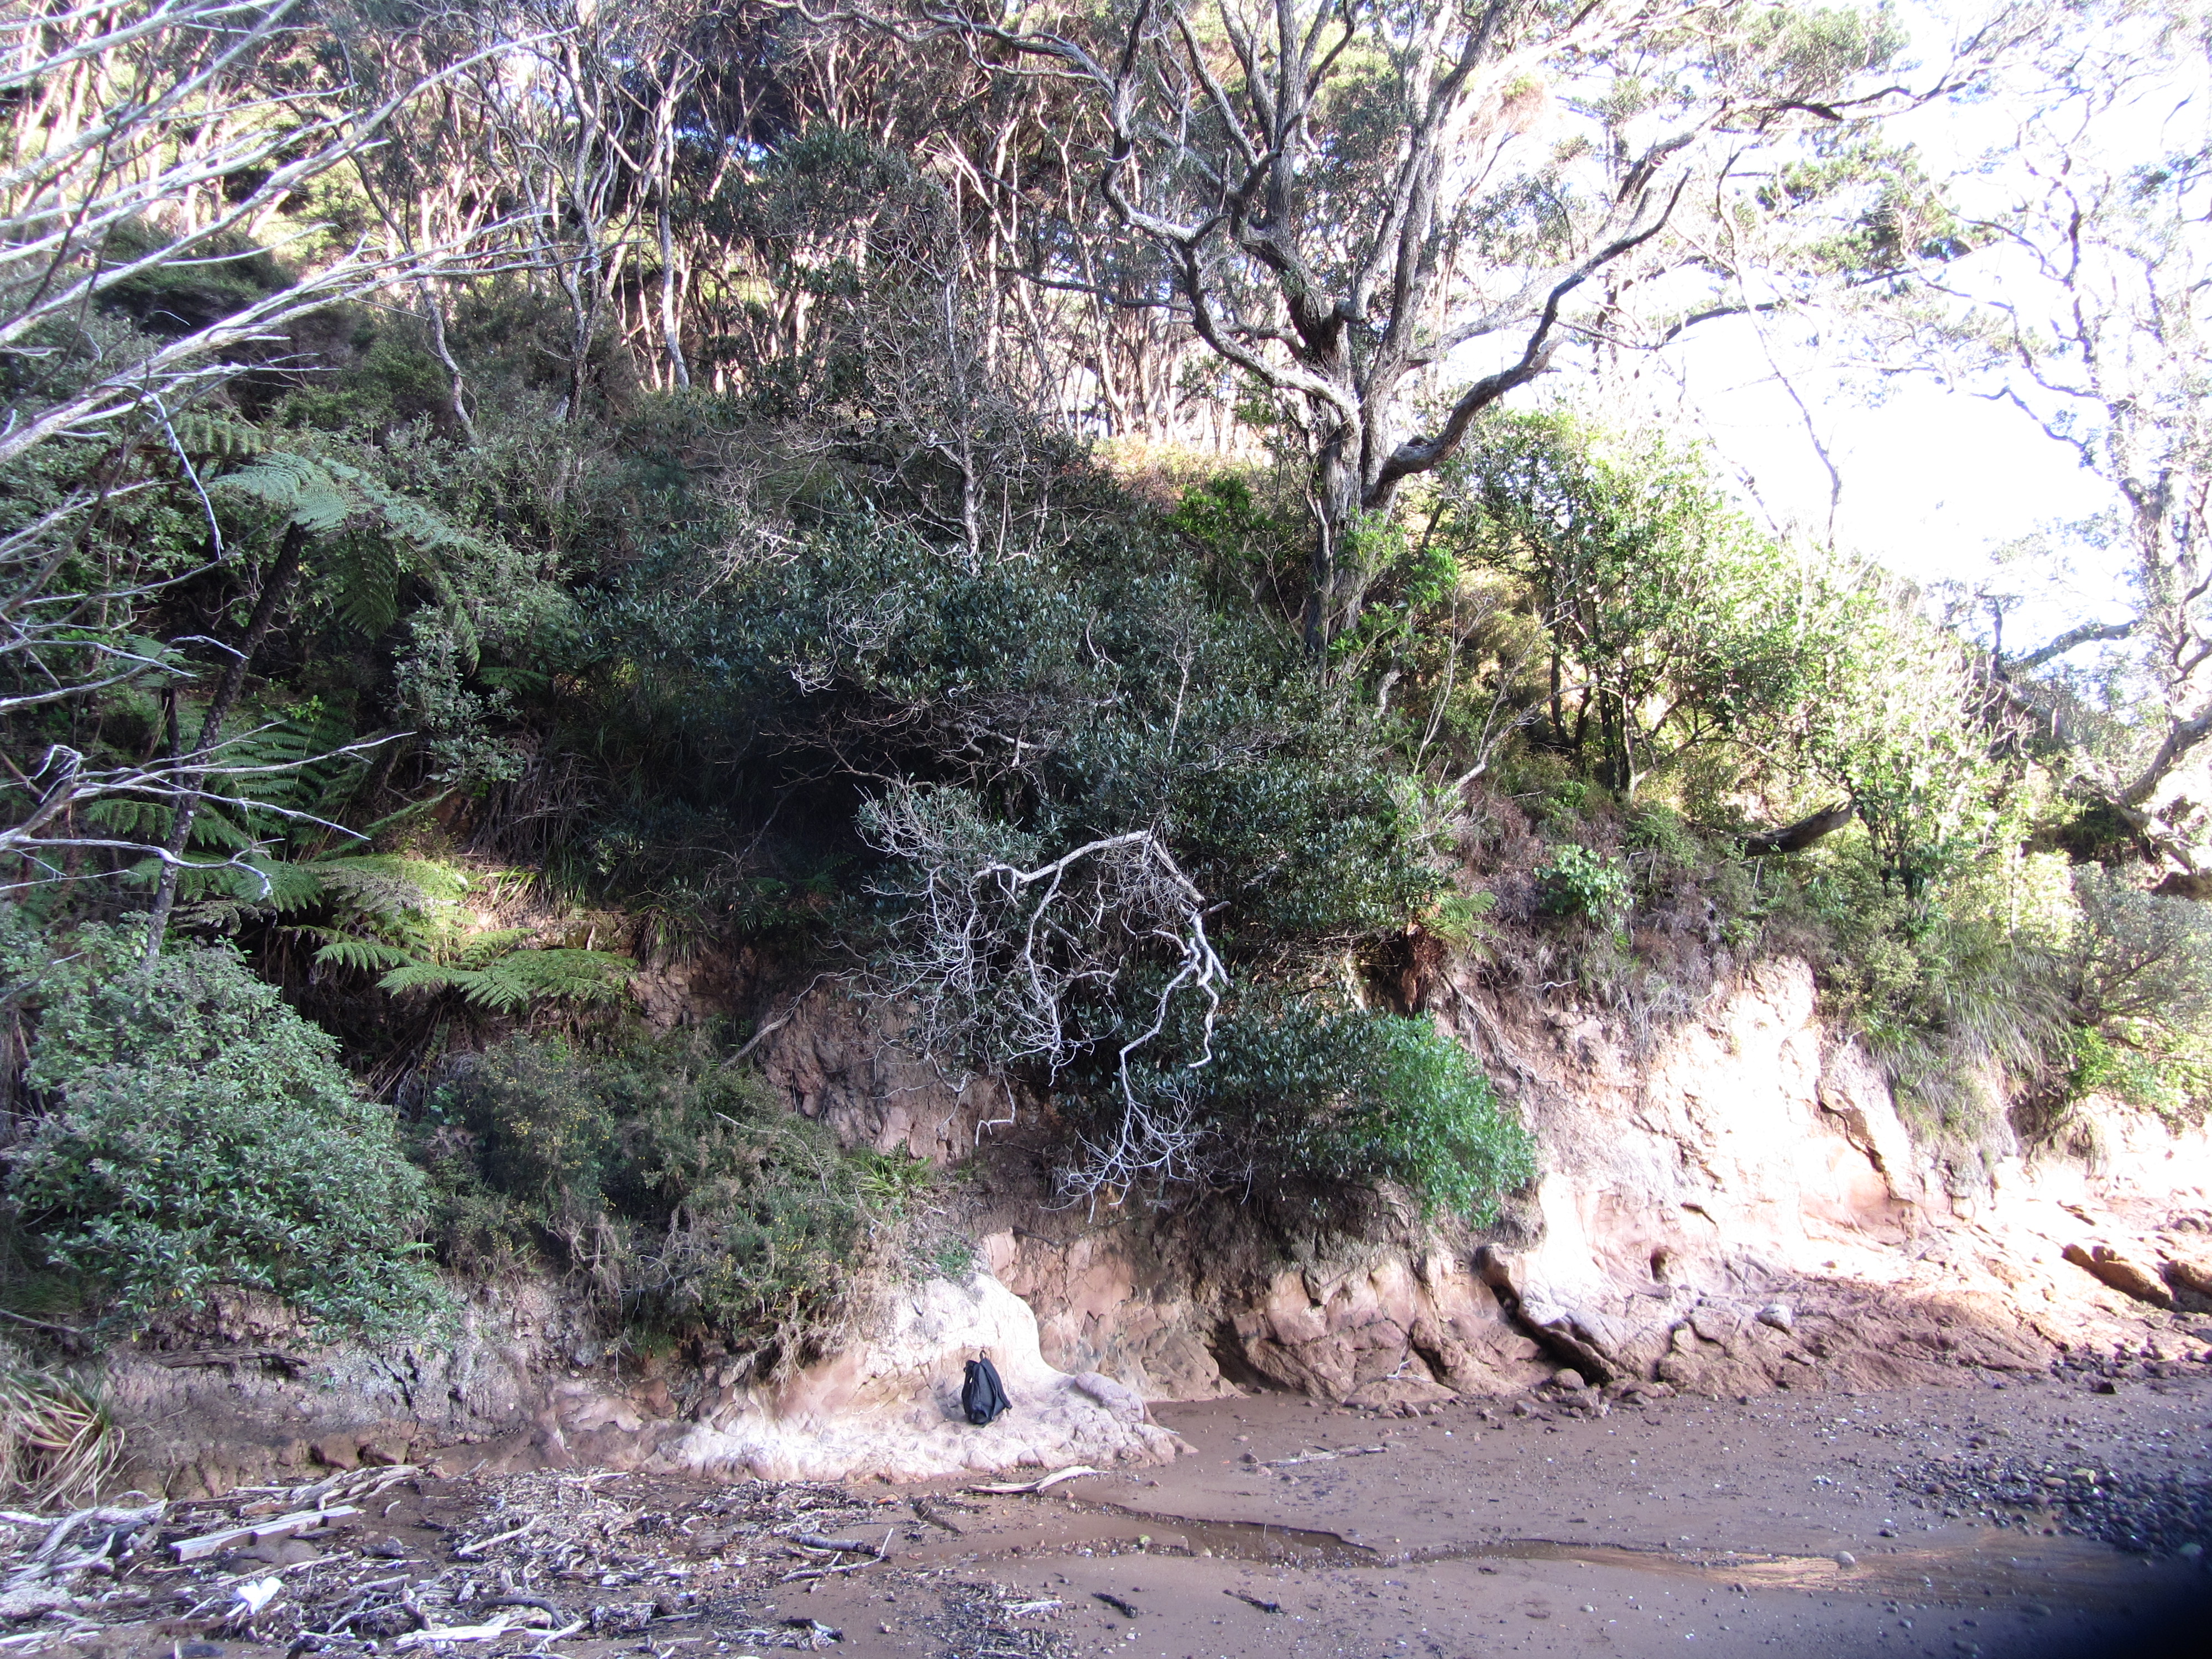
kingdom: Plantae
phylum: Tracheophyta
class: Magnoliopsida
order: Laurales
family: Lauraceae
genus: Laurus
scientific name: Laurus nobilis
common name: Bay
